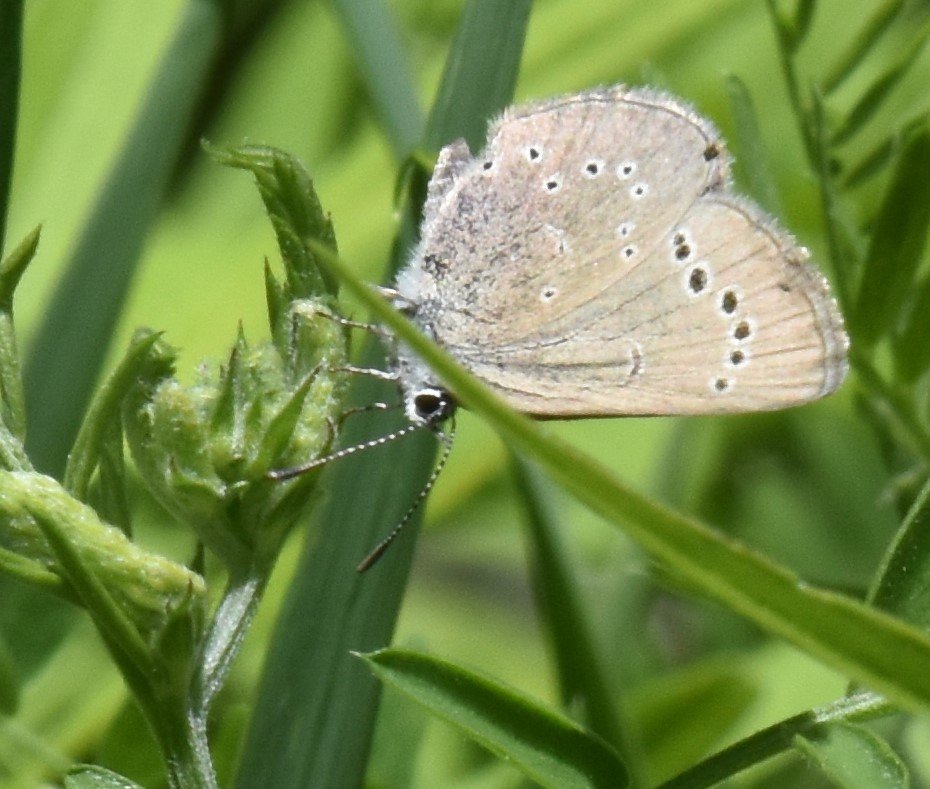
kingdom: Animalia
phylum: Arthropoda
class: Insecta
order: Lepidoptera
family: Lycaenidae
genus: Glaucopsyche
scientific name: Glaucopsyche lygdamus
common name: Silvery Blue
